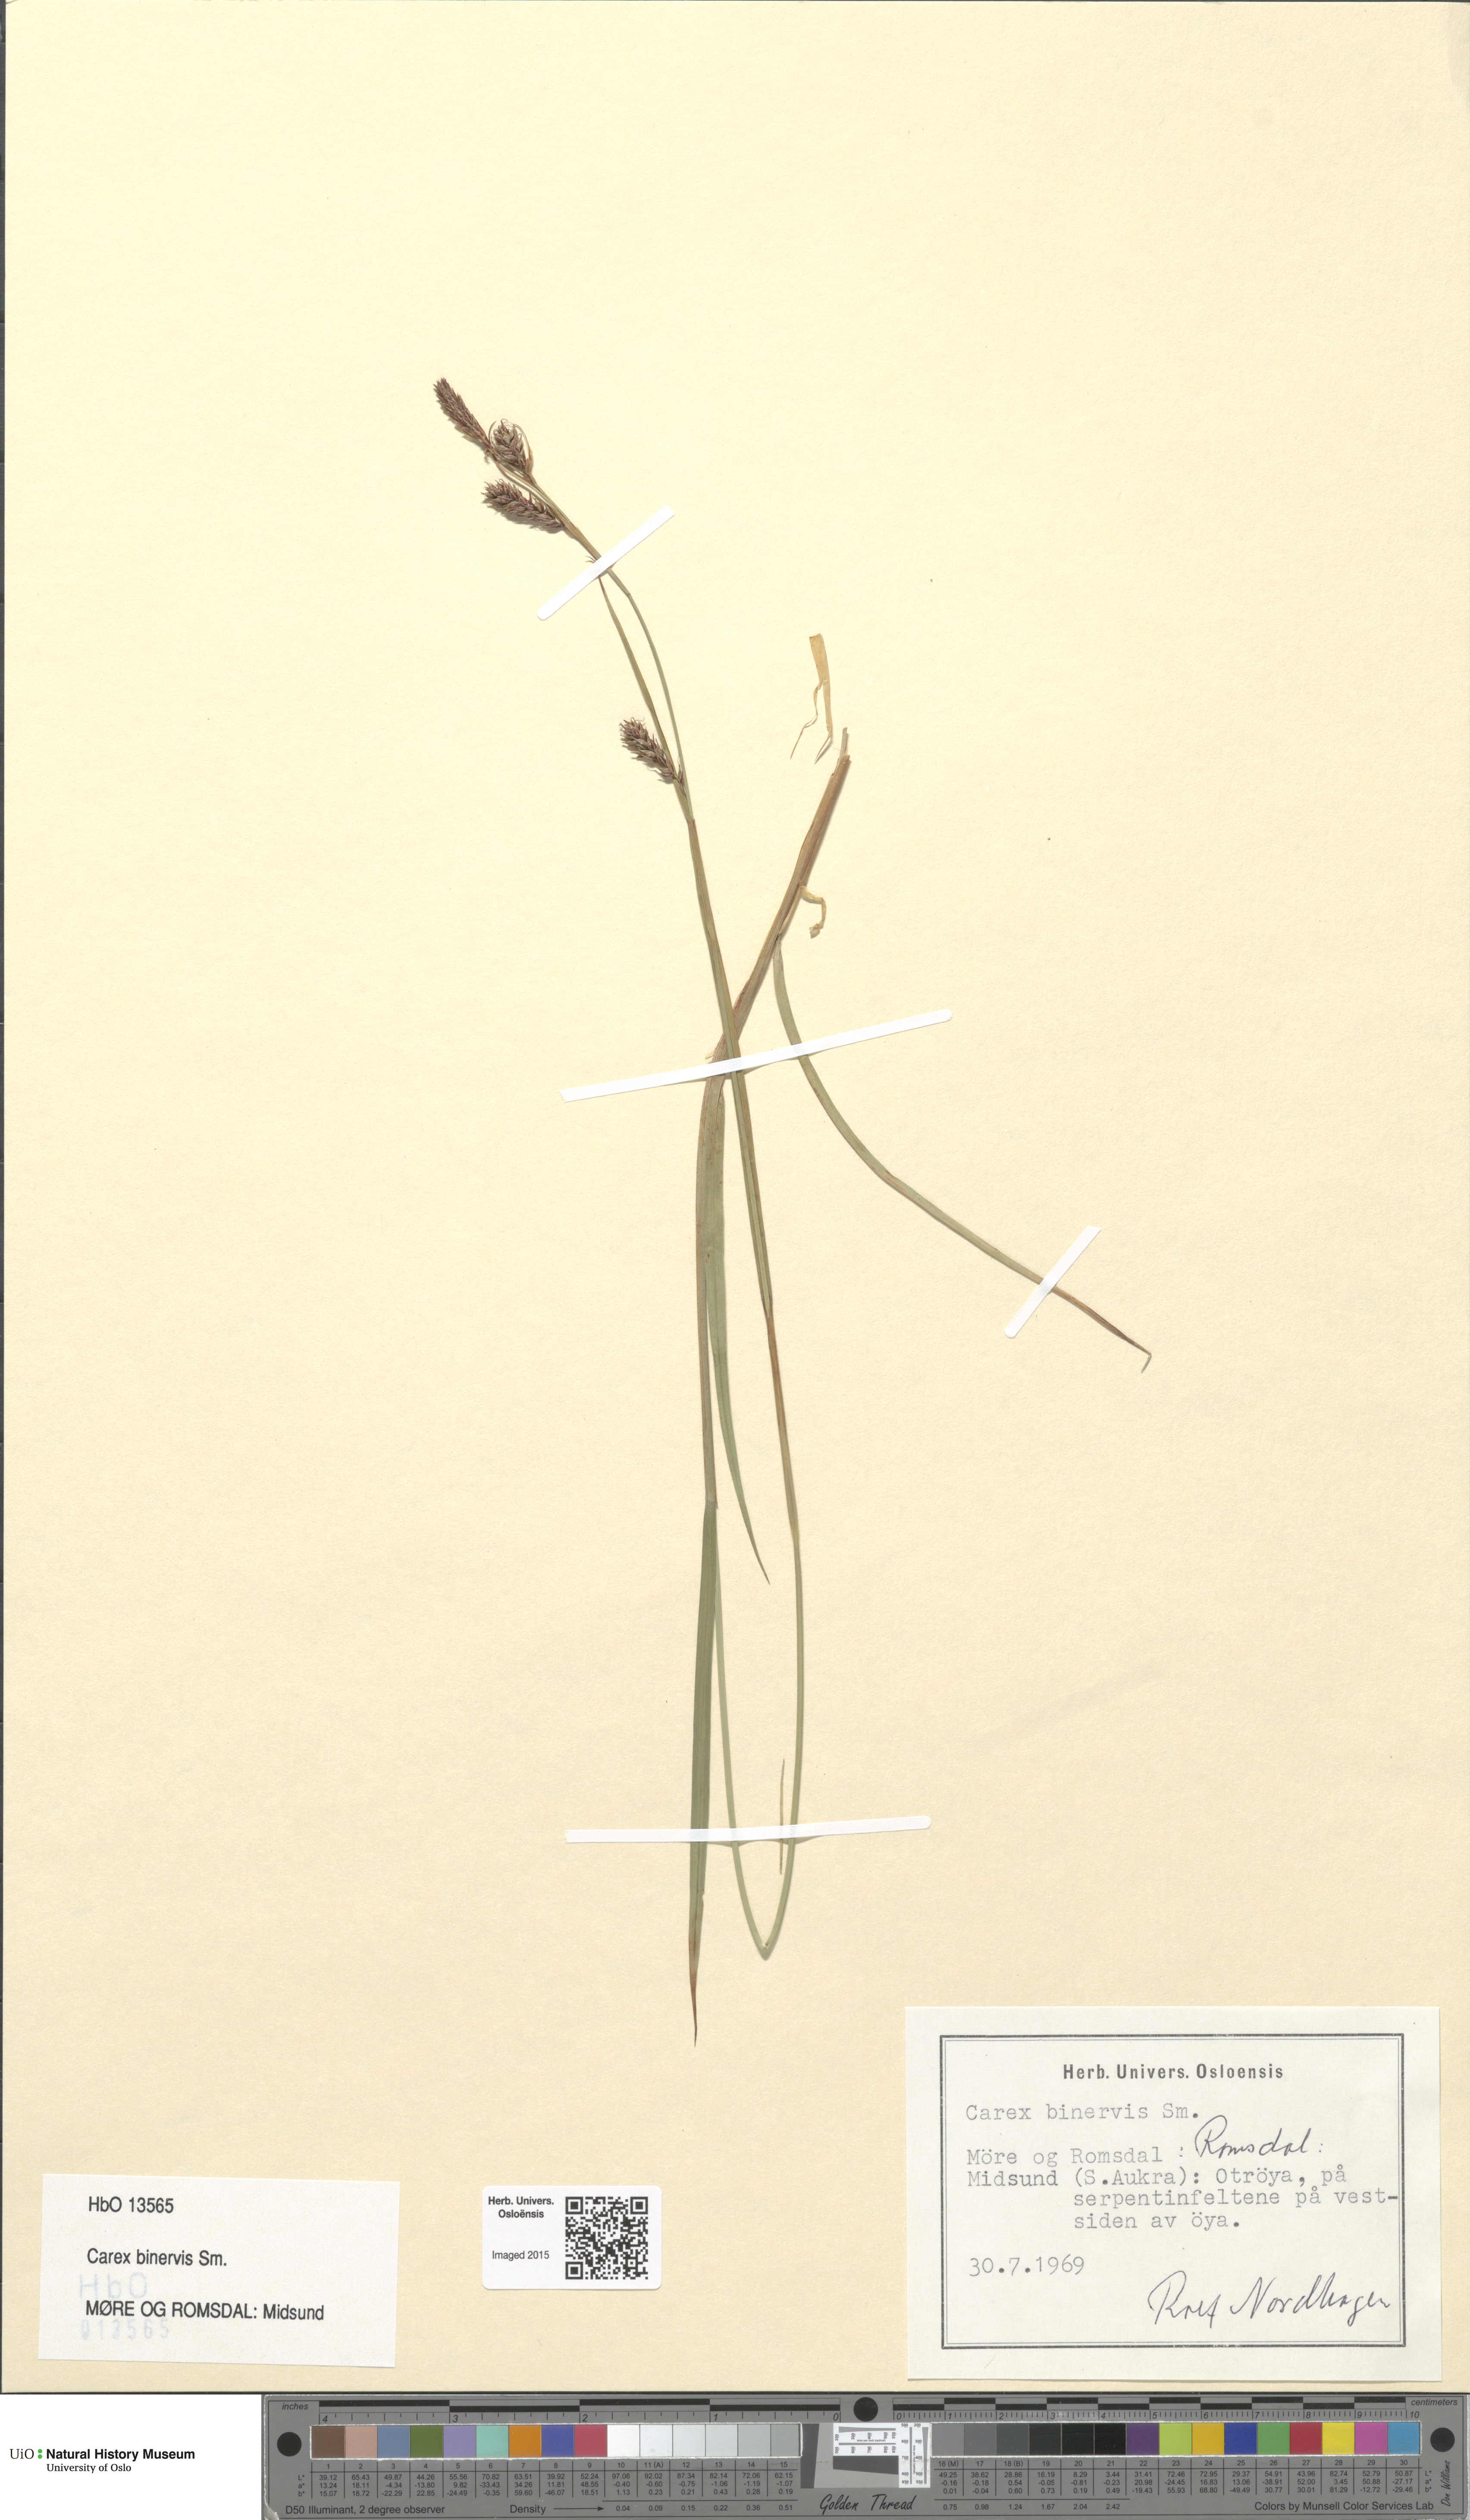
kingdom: Plantae
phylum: Tracheophyta
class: Liliopsida
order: Poales
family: Cyperaceae
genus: Carex
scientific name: Carex binervis
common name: Green-ribbed sedge
